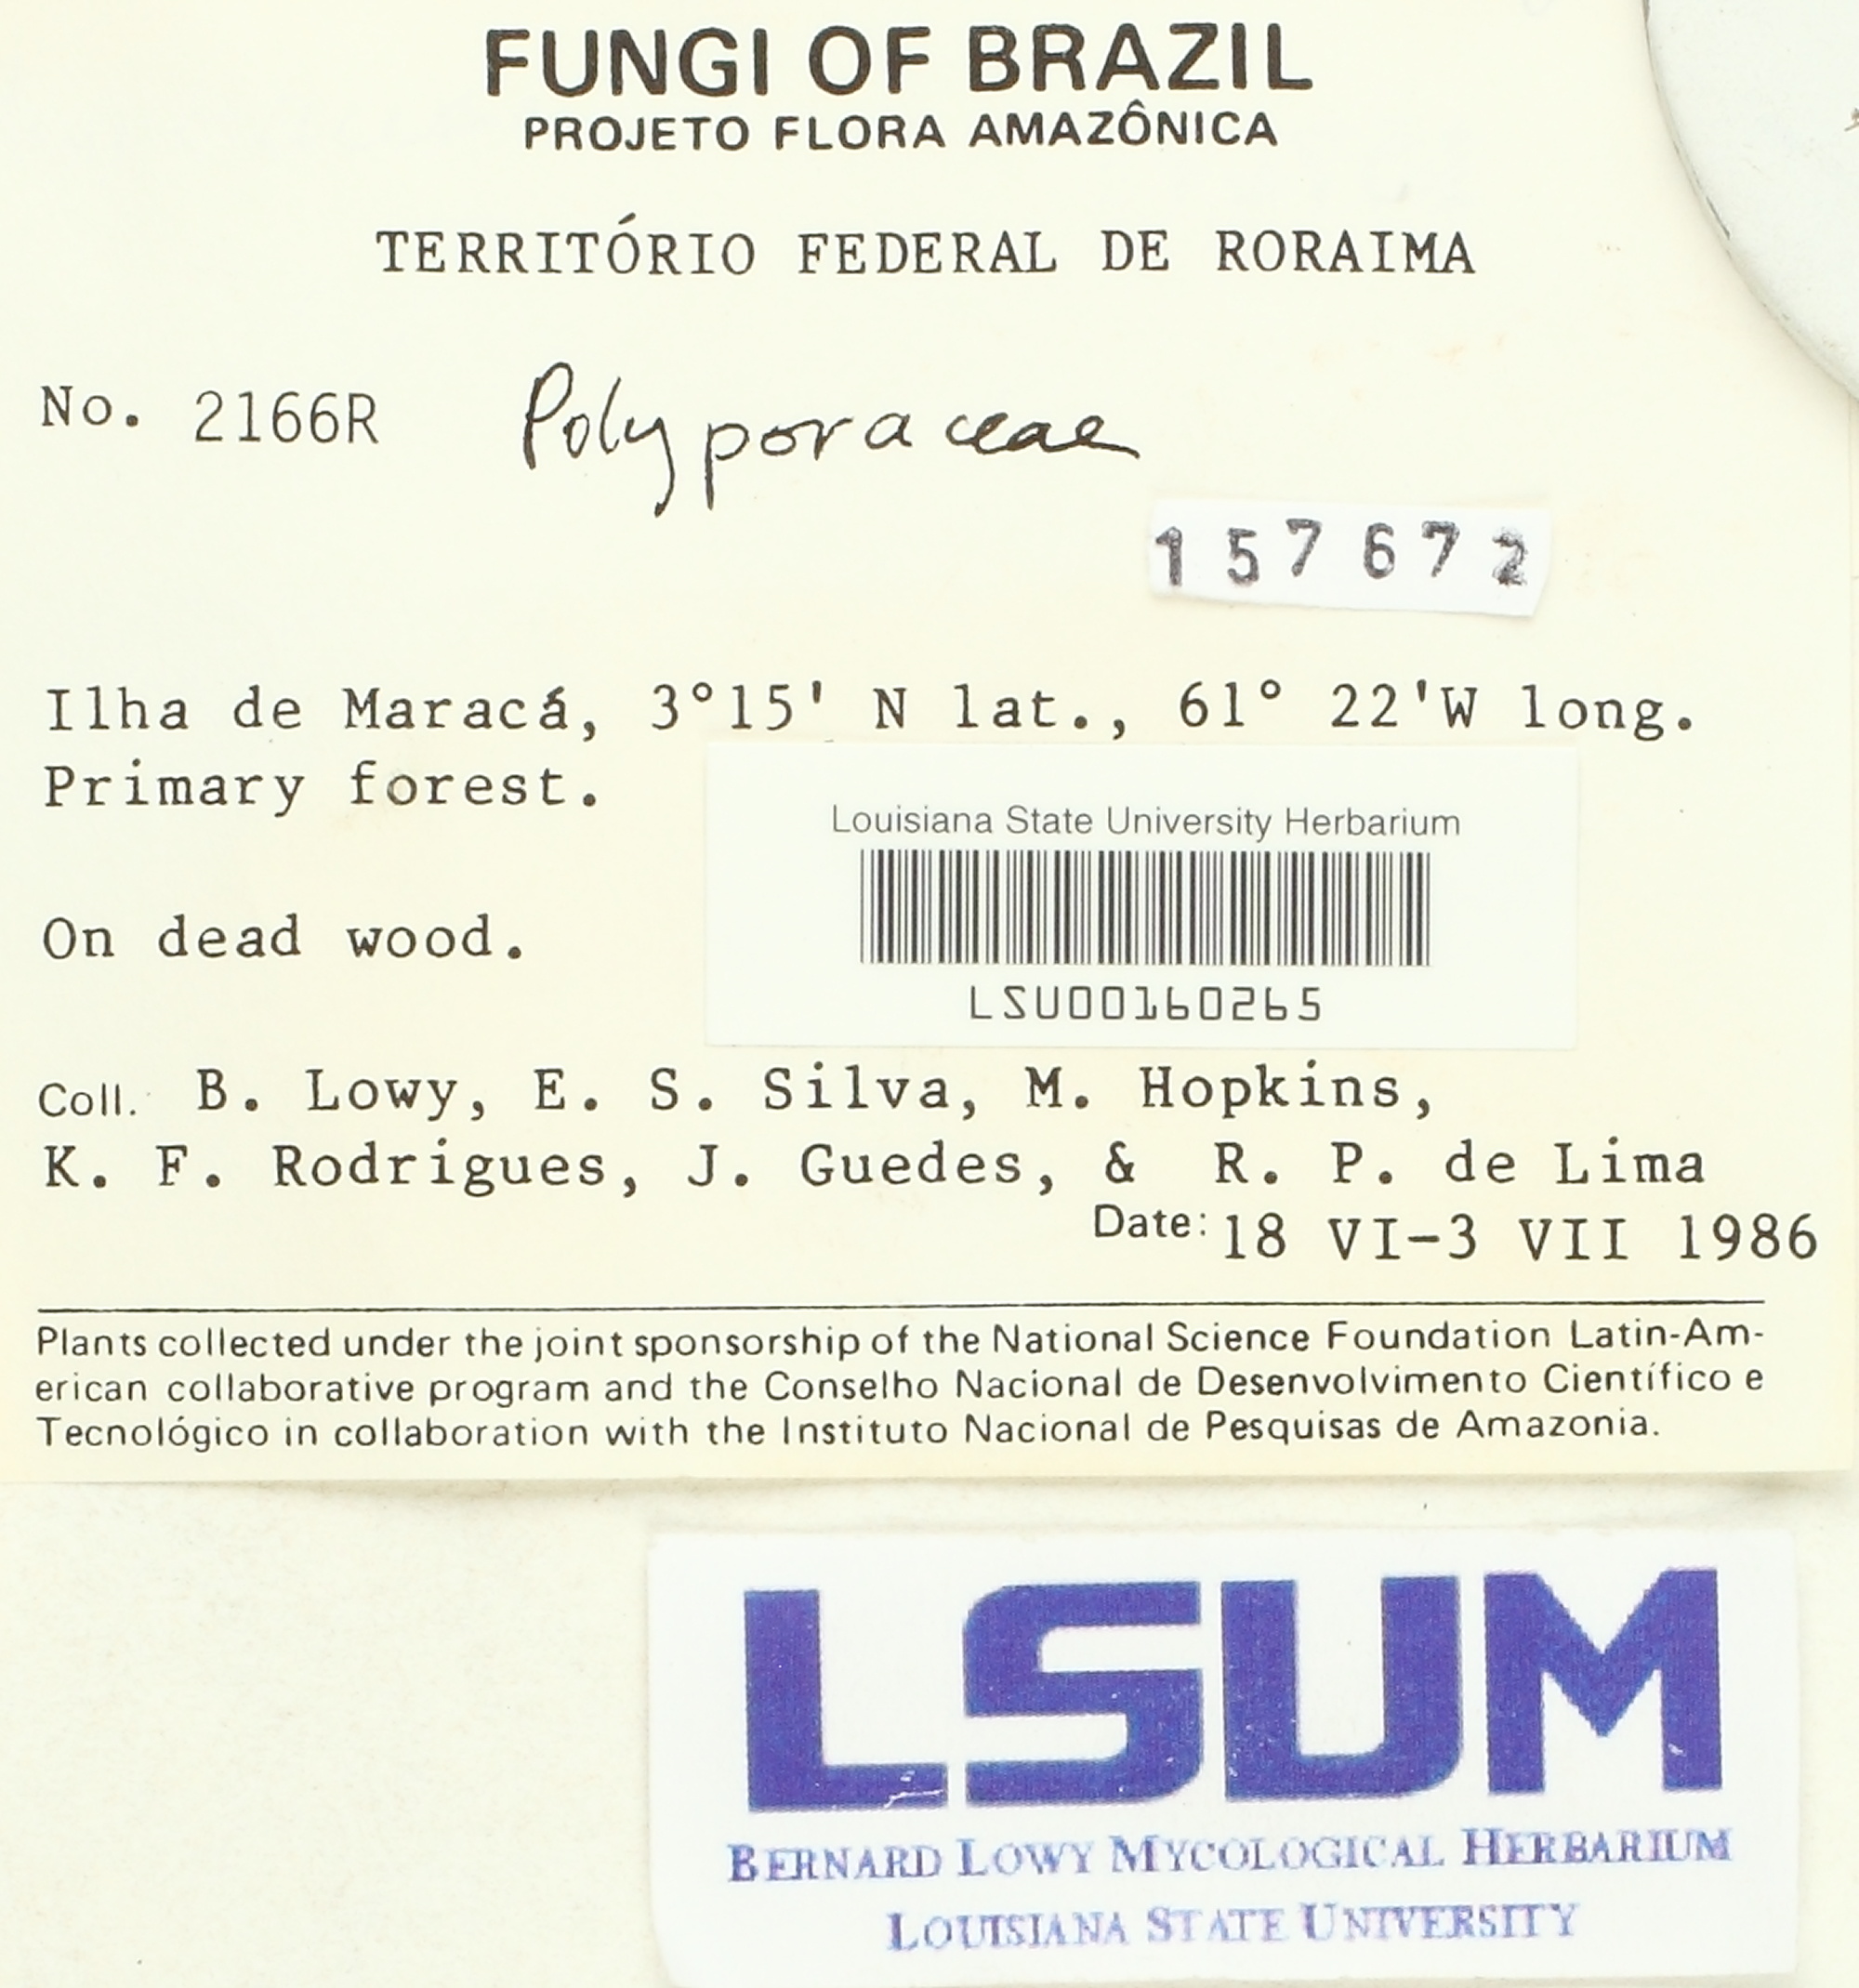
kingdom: Fungi
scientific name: Fungi
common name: Fungi
